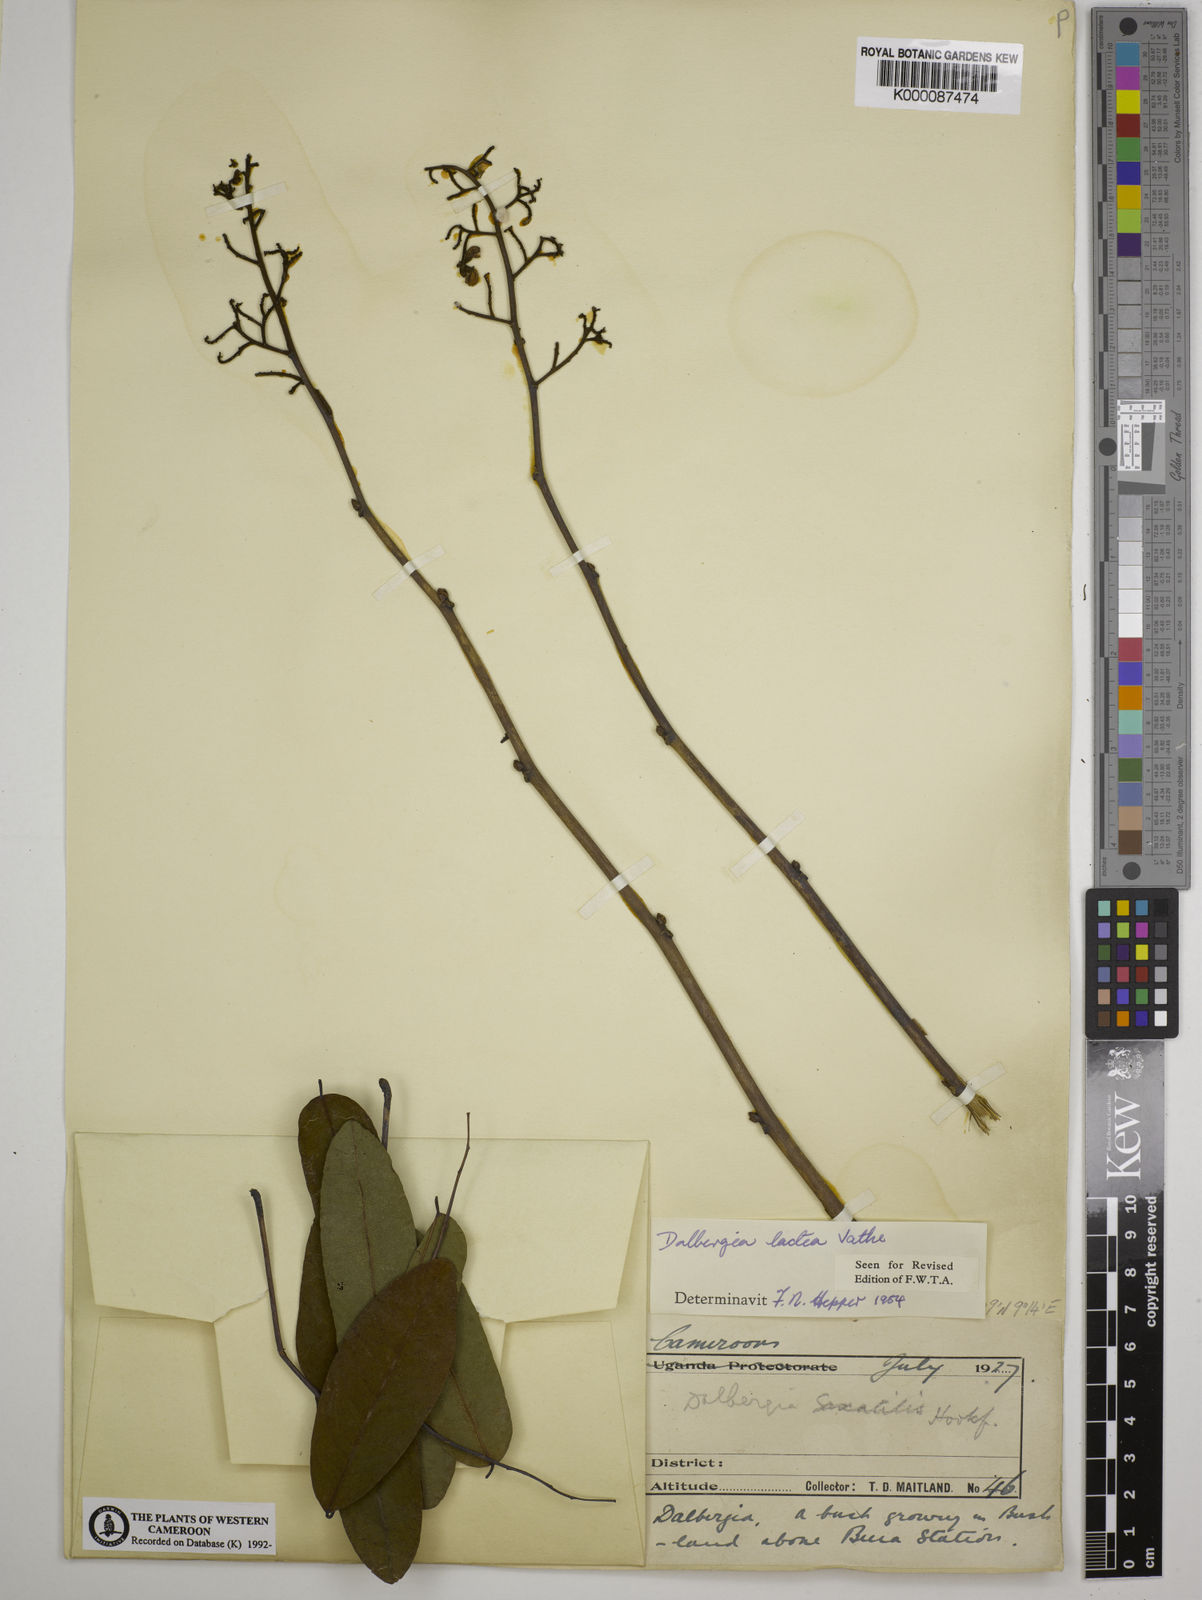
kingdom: Plantae
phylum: Tracheophyta
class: Magnoliopsida
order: Fabales
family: Fabaceae
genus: Dalbergia
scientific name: Dalbergia lactea
